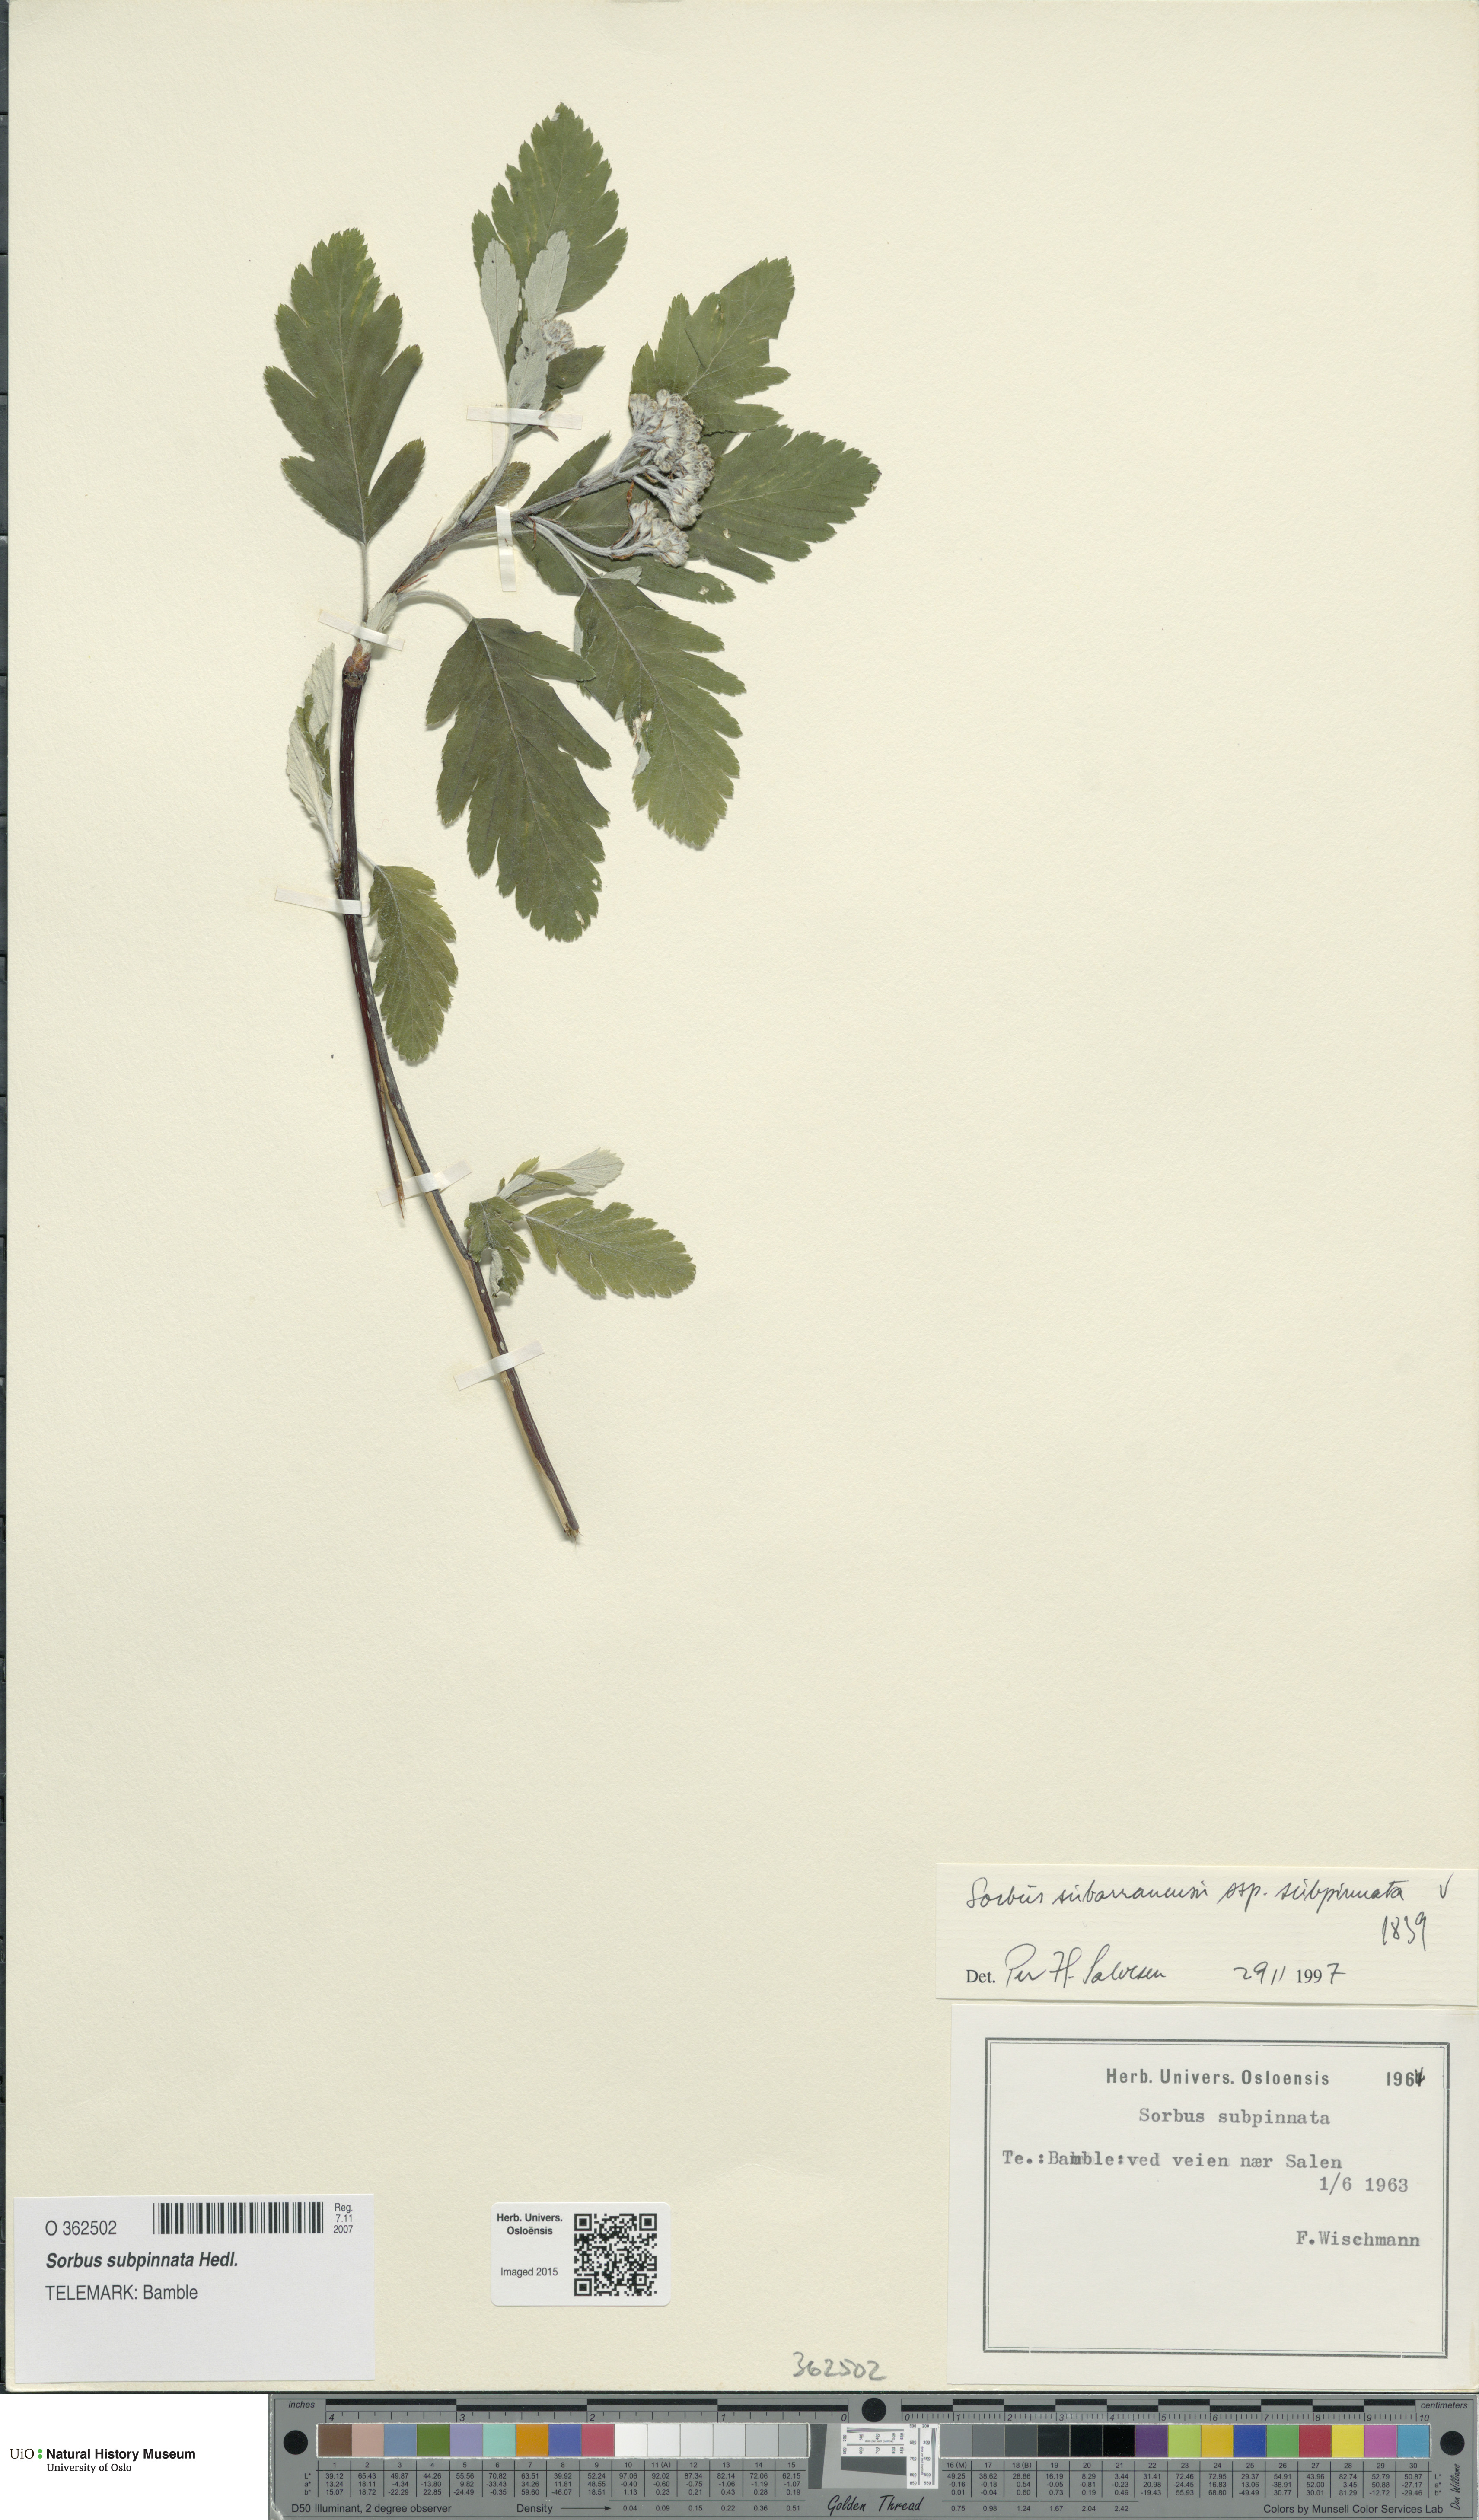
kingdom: Plantae
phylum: Tracheophyta
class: Magnoliopsida
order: Rosales
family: Rosaceae
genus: Hedlundia
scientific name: Hedlundia subpinnata
